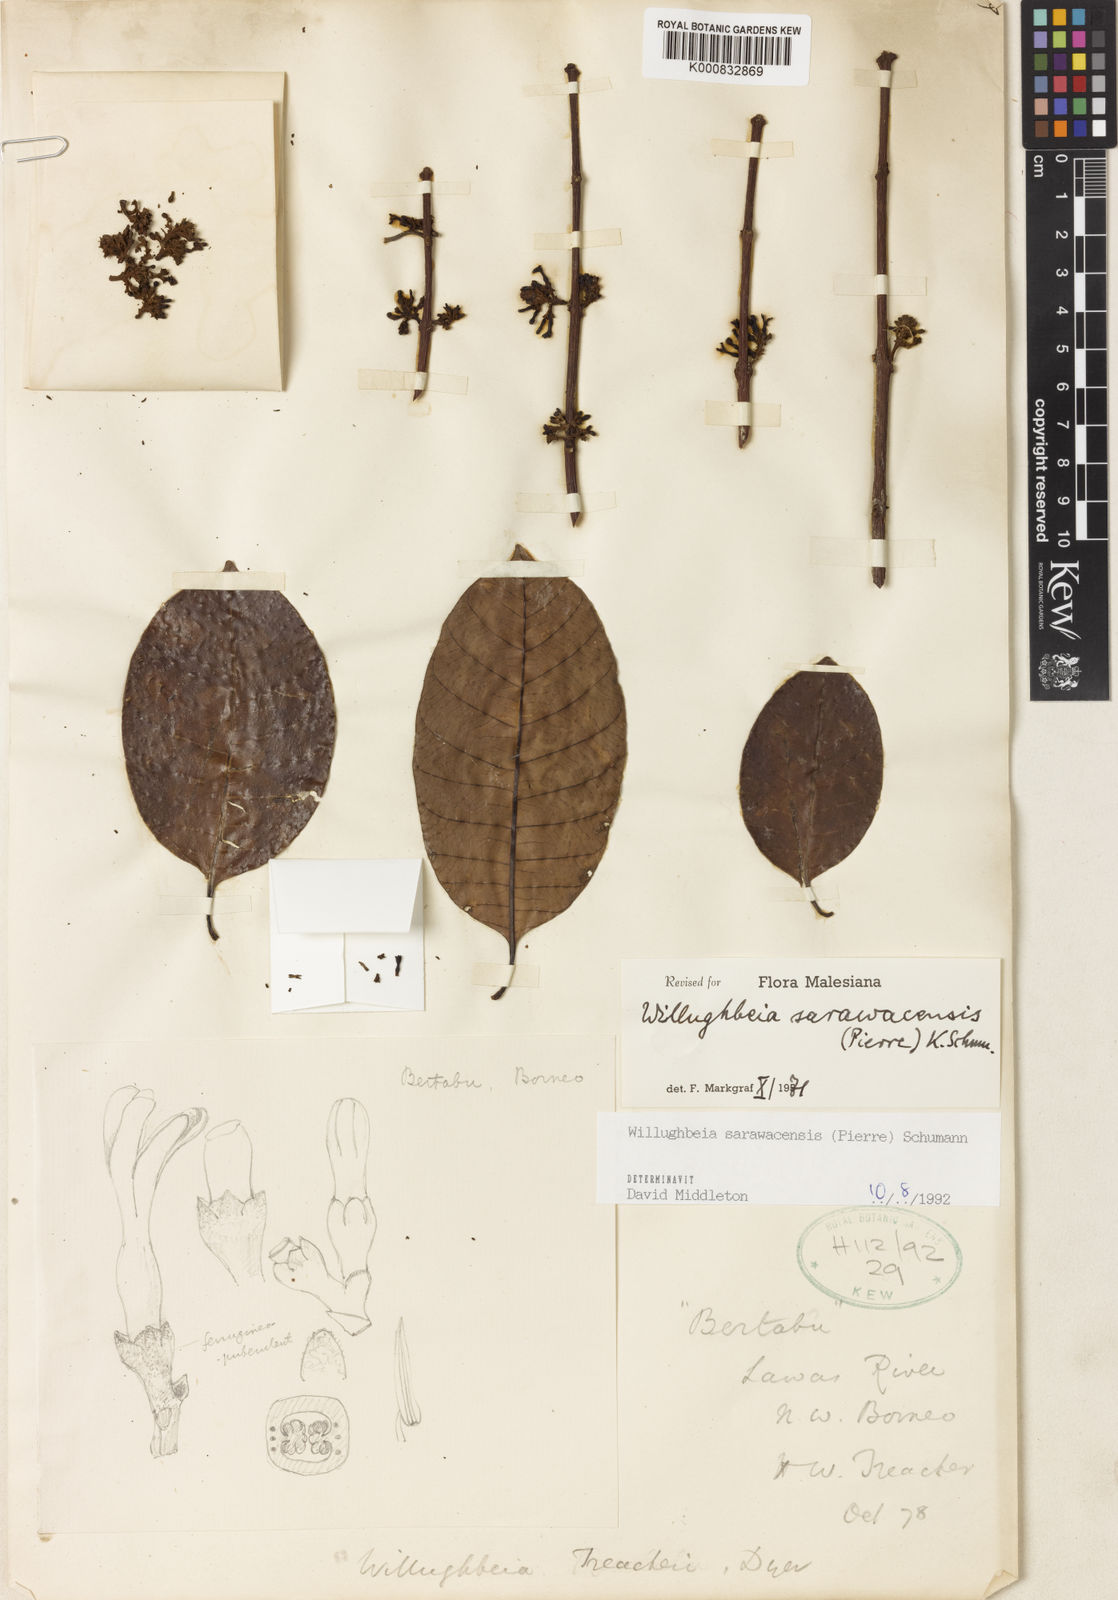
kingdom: Plantae
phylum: Tracheophyta
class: Magnoliopsida
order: Gentianales
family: Apocynaceae
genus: Willughbeia
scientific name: Willughbeia sarawacensis
